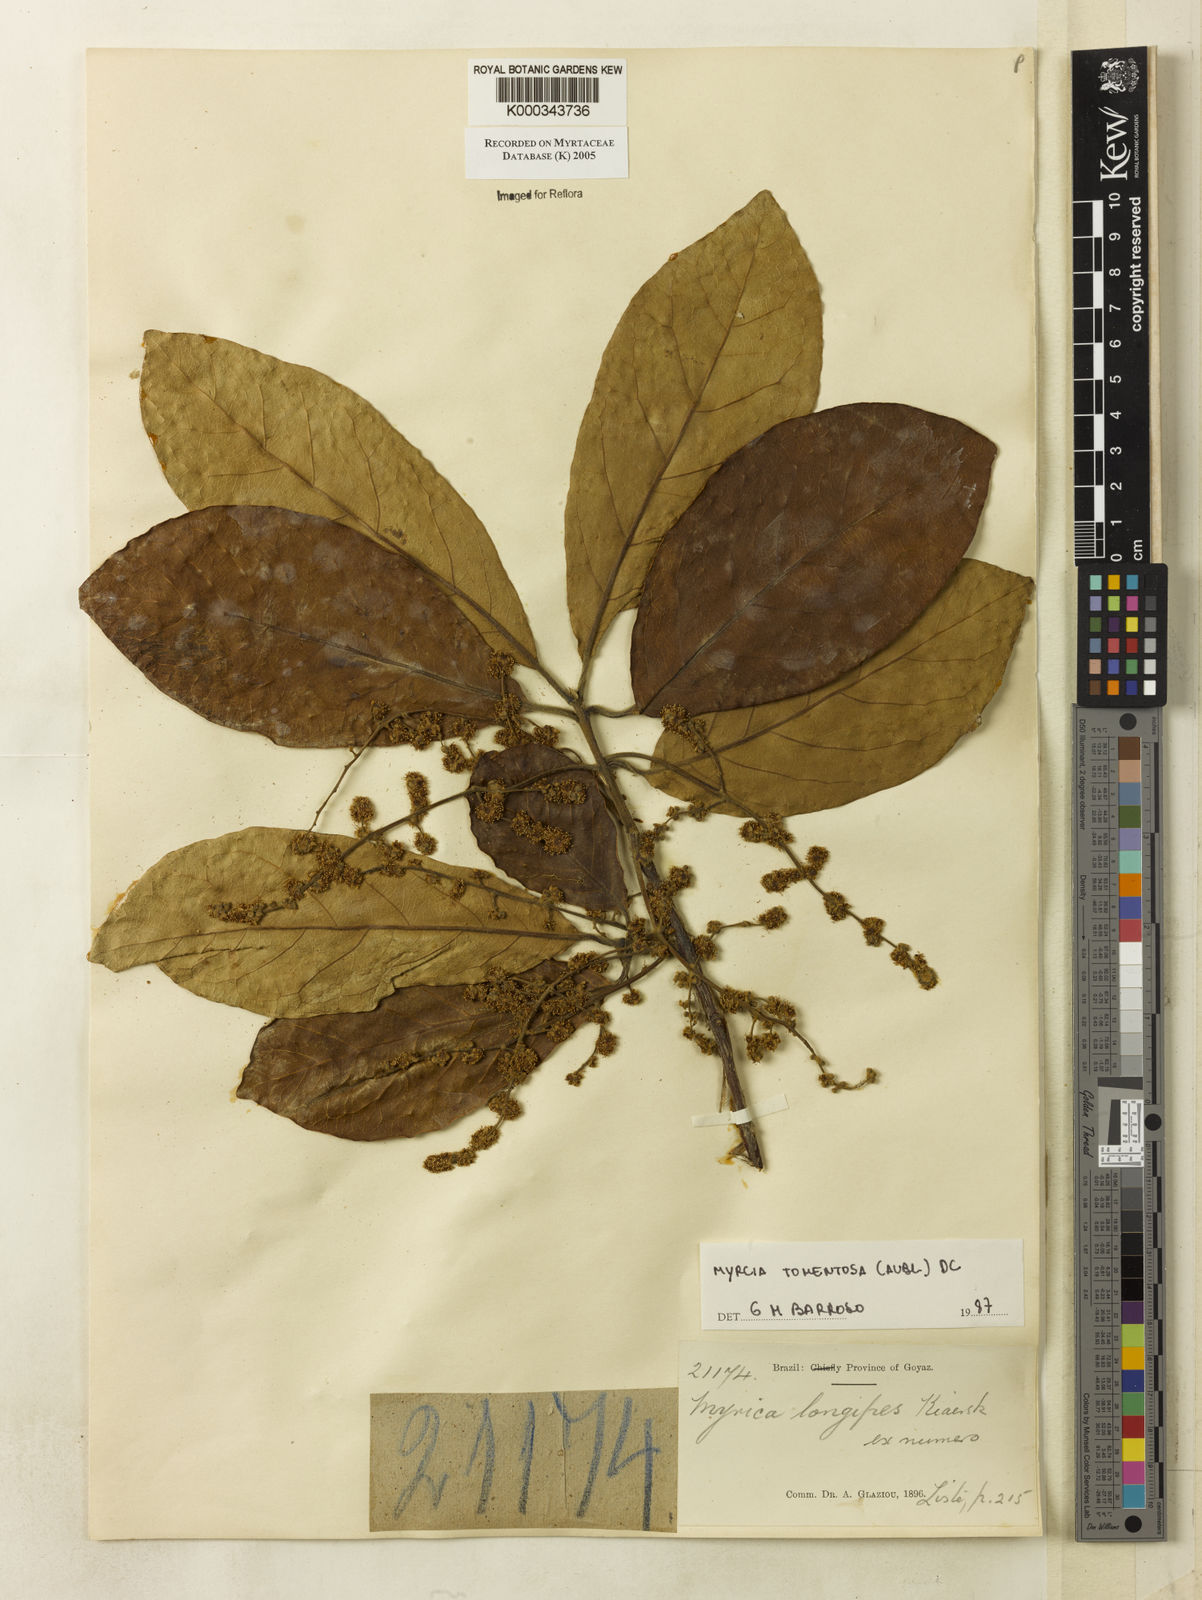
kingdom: Plantae
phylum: Tracheophyta
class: Magnoliopsida
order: Myrtales
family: Myrtaceae
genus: Myrcia
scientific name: Myrcia tomentosa
